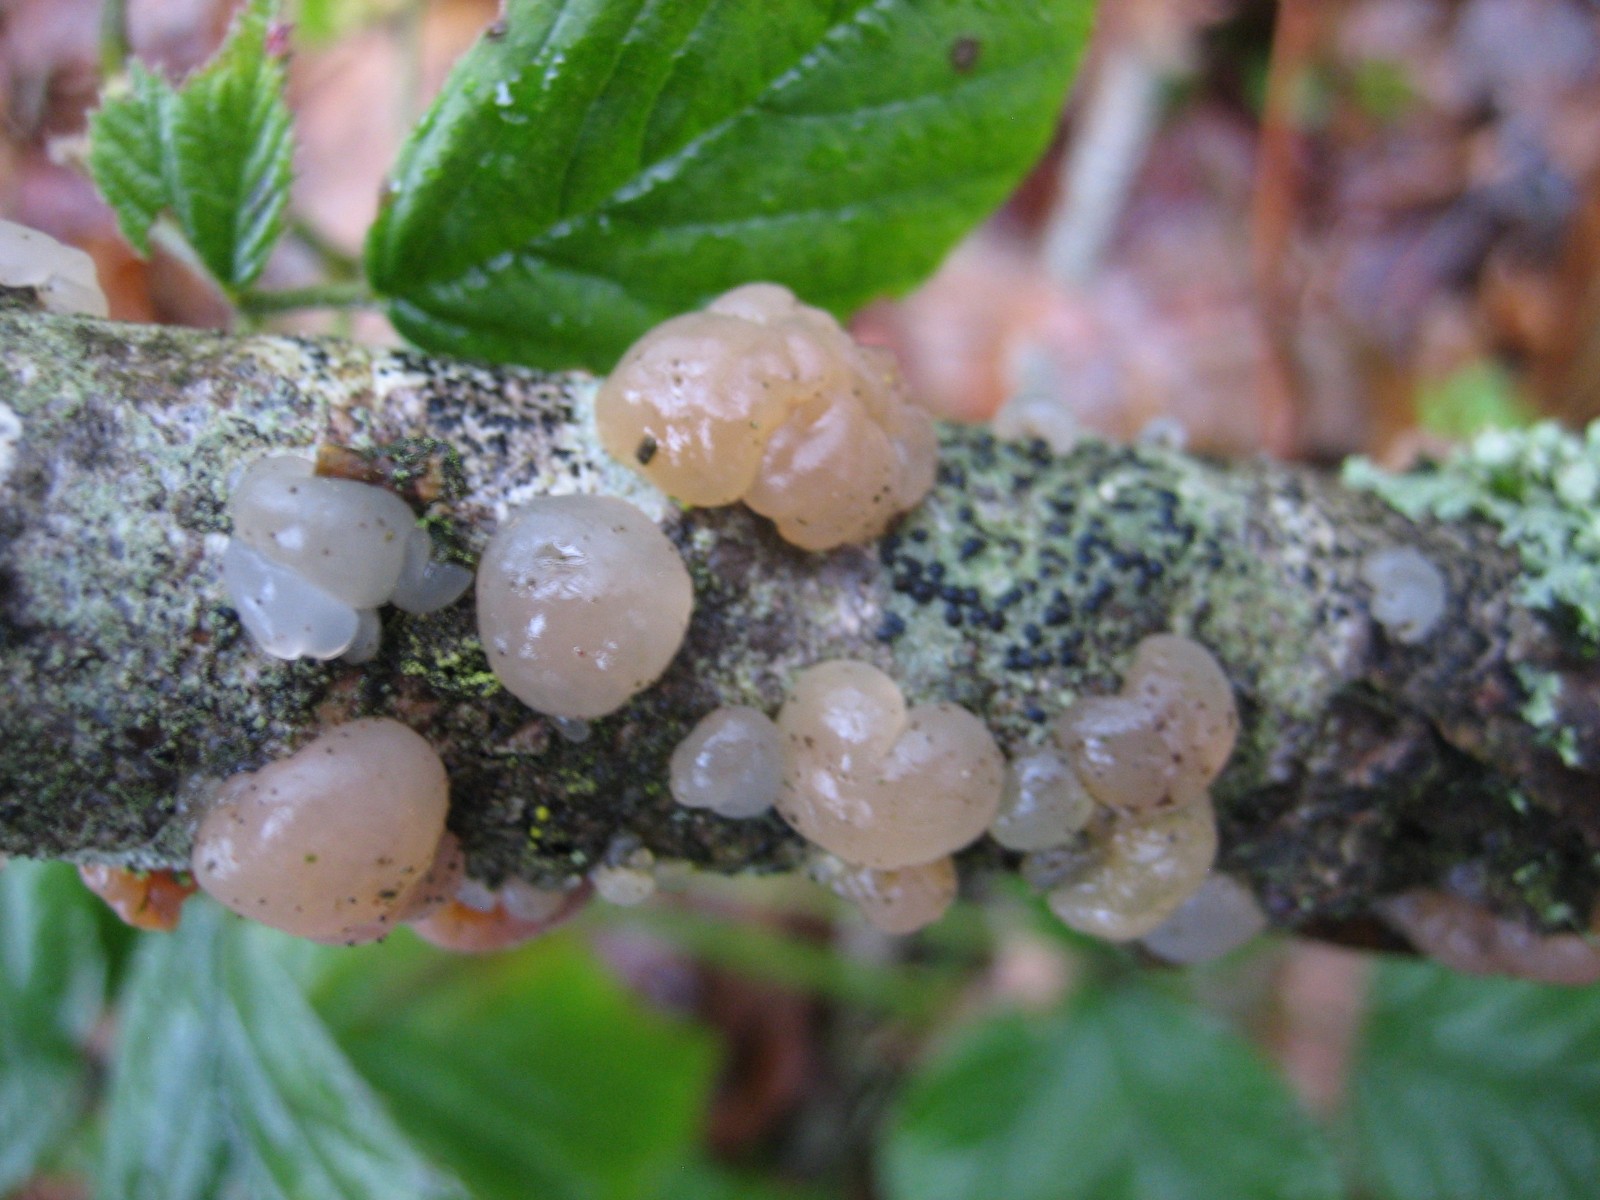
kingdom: Fungi
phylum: Basidiomycota
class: Agaricomycetes
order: Auriculariales
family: Auriculariaceae
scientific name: Auriculariaceae
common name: judasørefamilien
